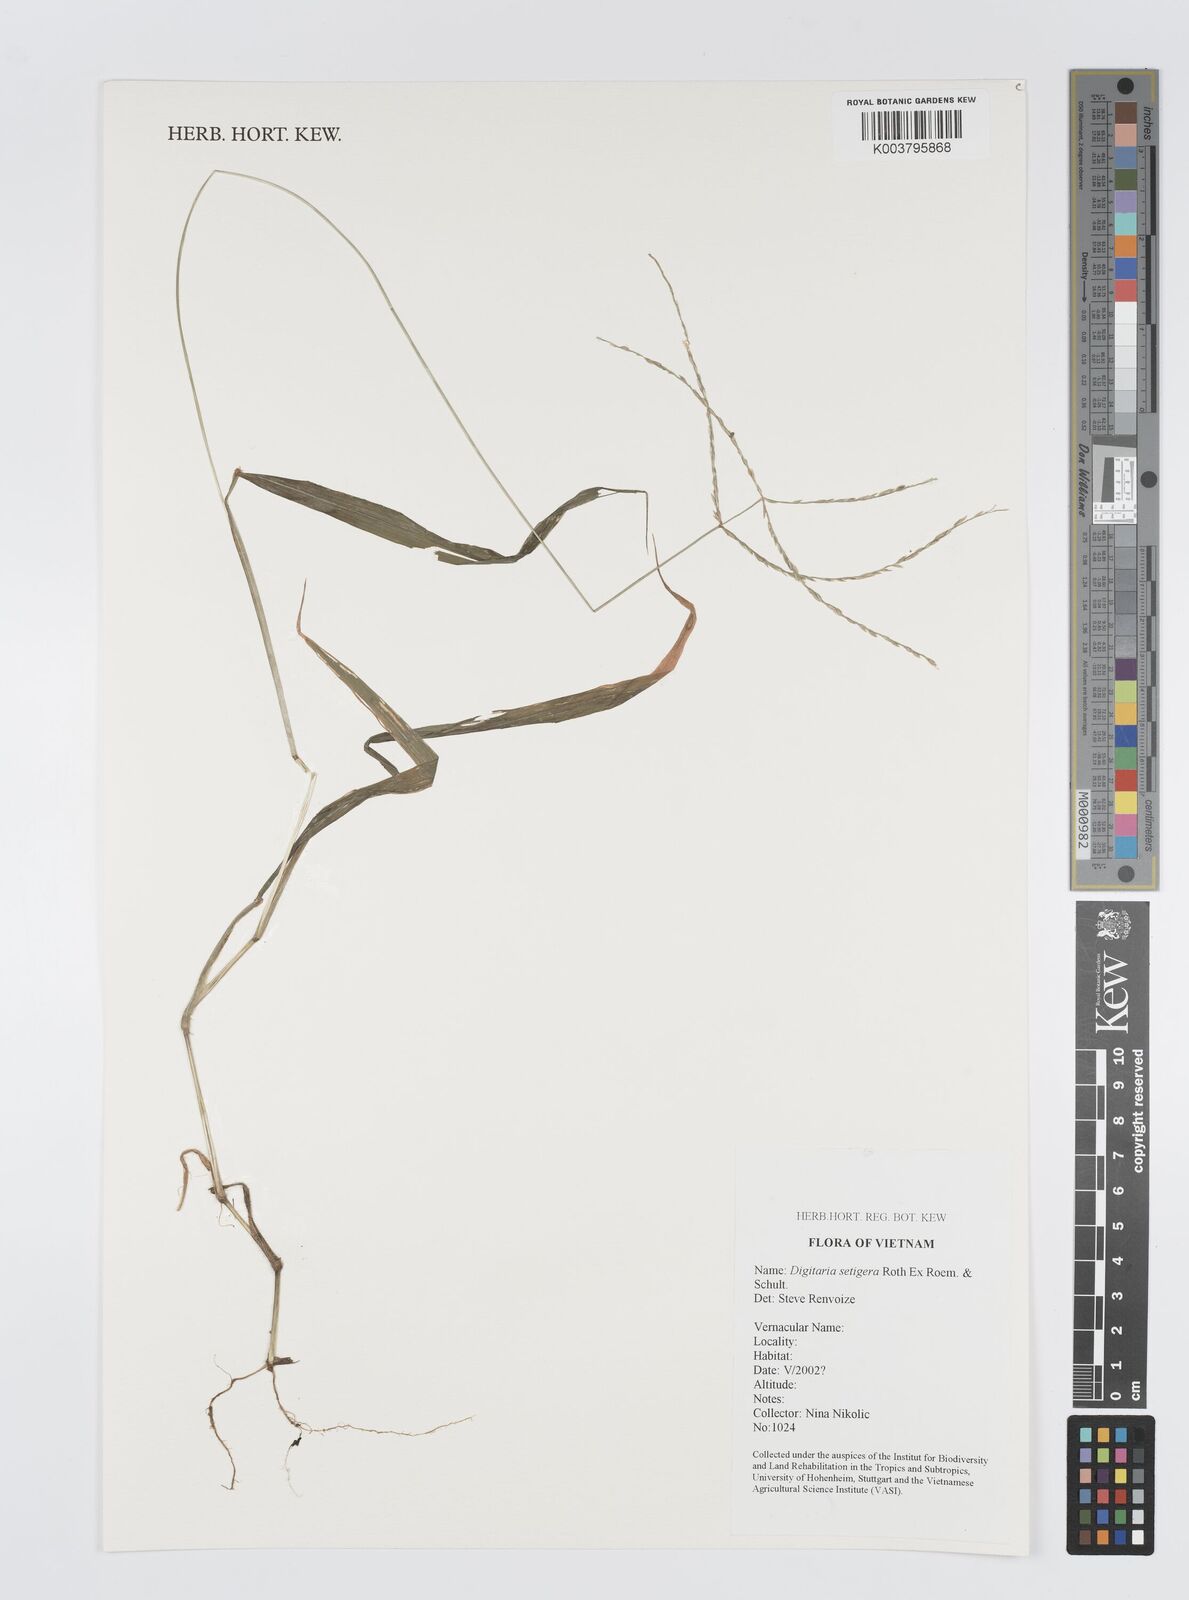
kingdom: Plantae
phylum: Tracheophyta
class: Liliopsida
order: Poales
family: Poaceae
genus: Digitaria
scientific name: Digitaria setigera
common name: East indian crabgrass
